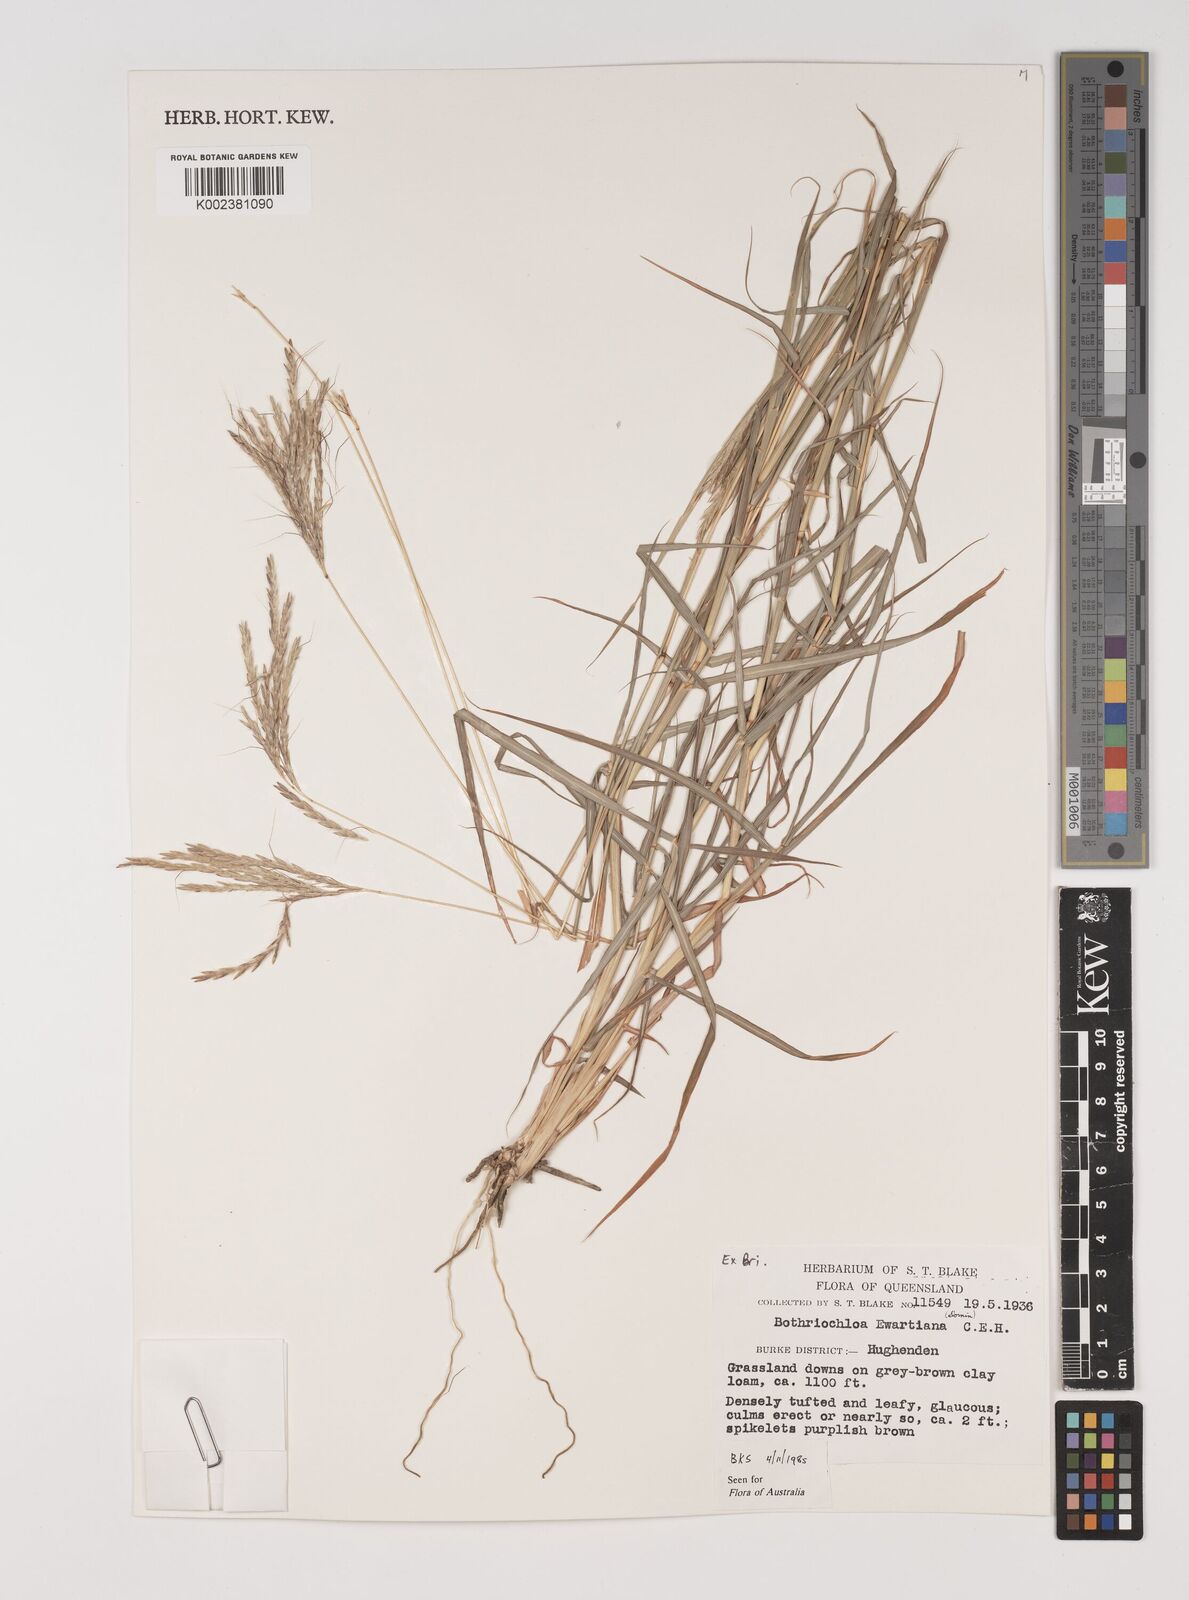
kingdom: Plantae
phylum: Tracheophyta
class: Liliopsida
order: Poales
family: Poaceae
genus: Bothriochloa
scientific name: Bothriochloa ewartiana
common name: Desert-bluegrass
